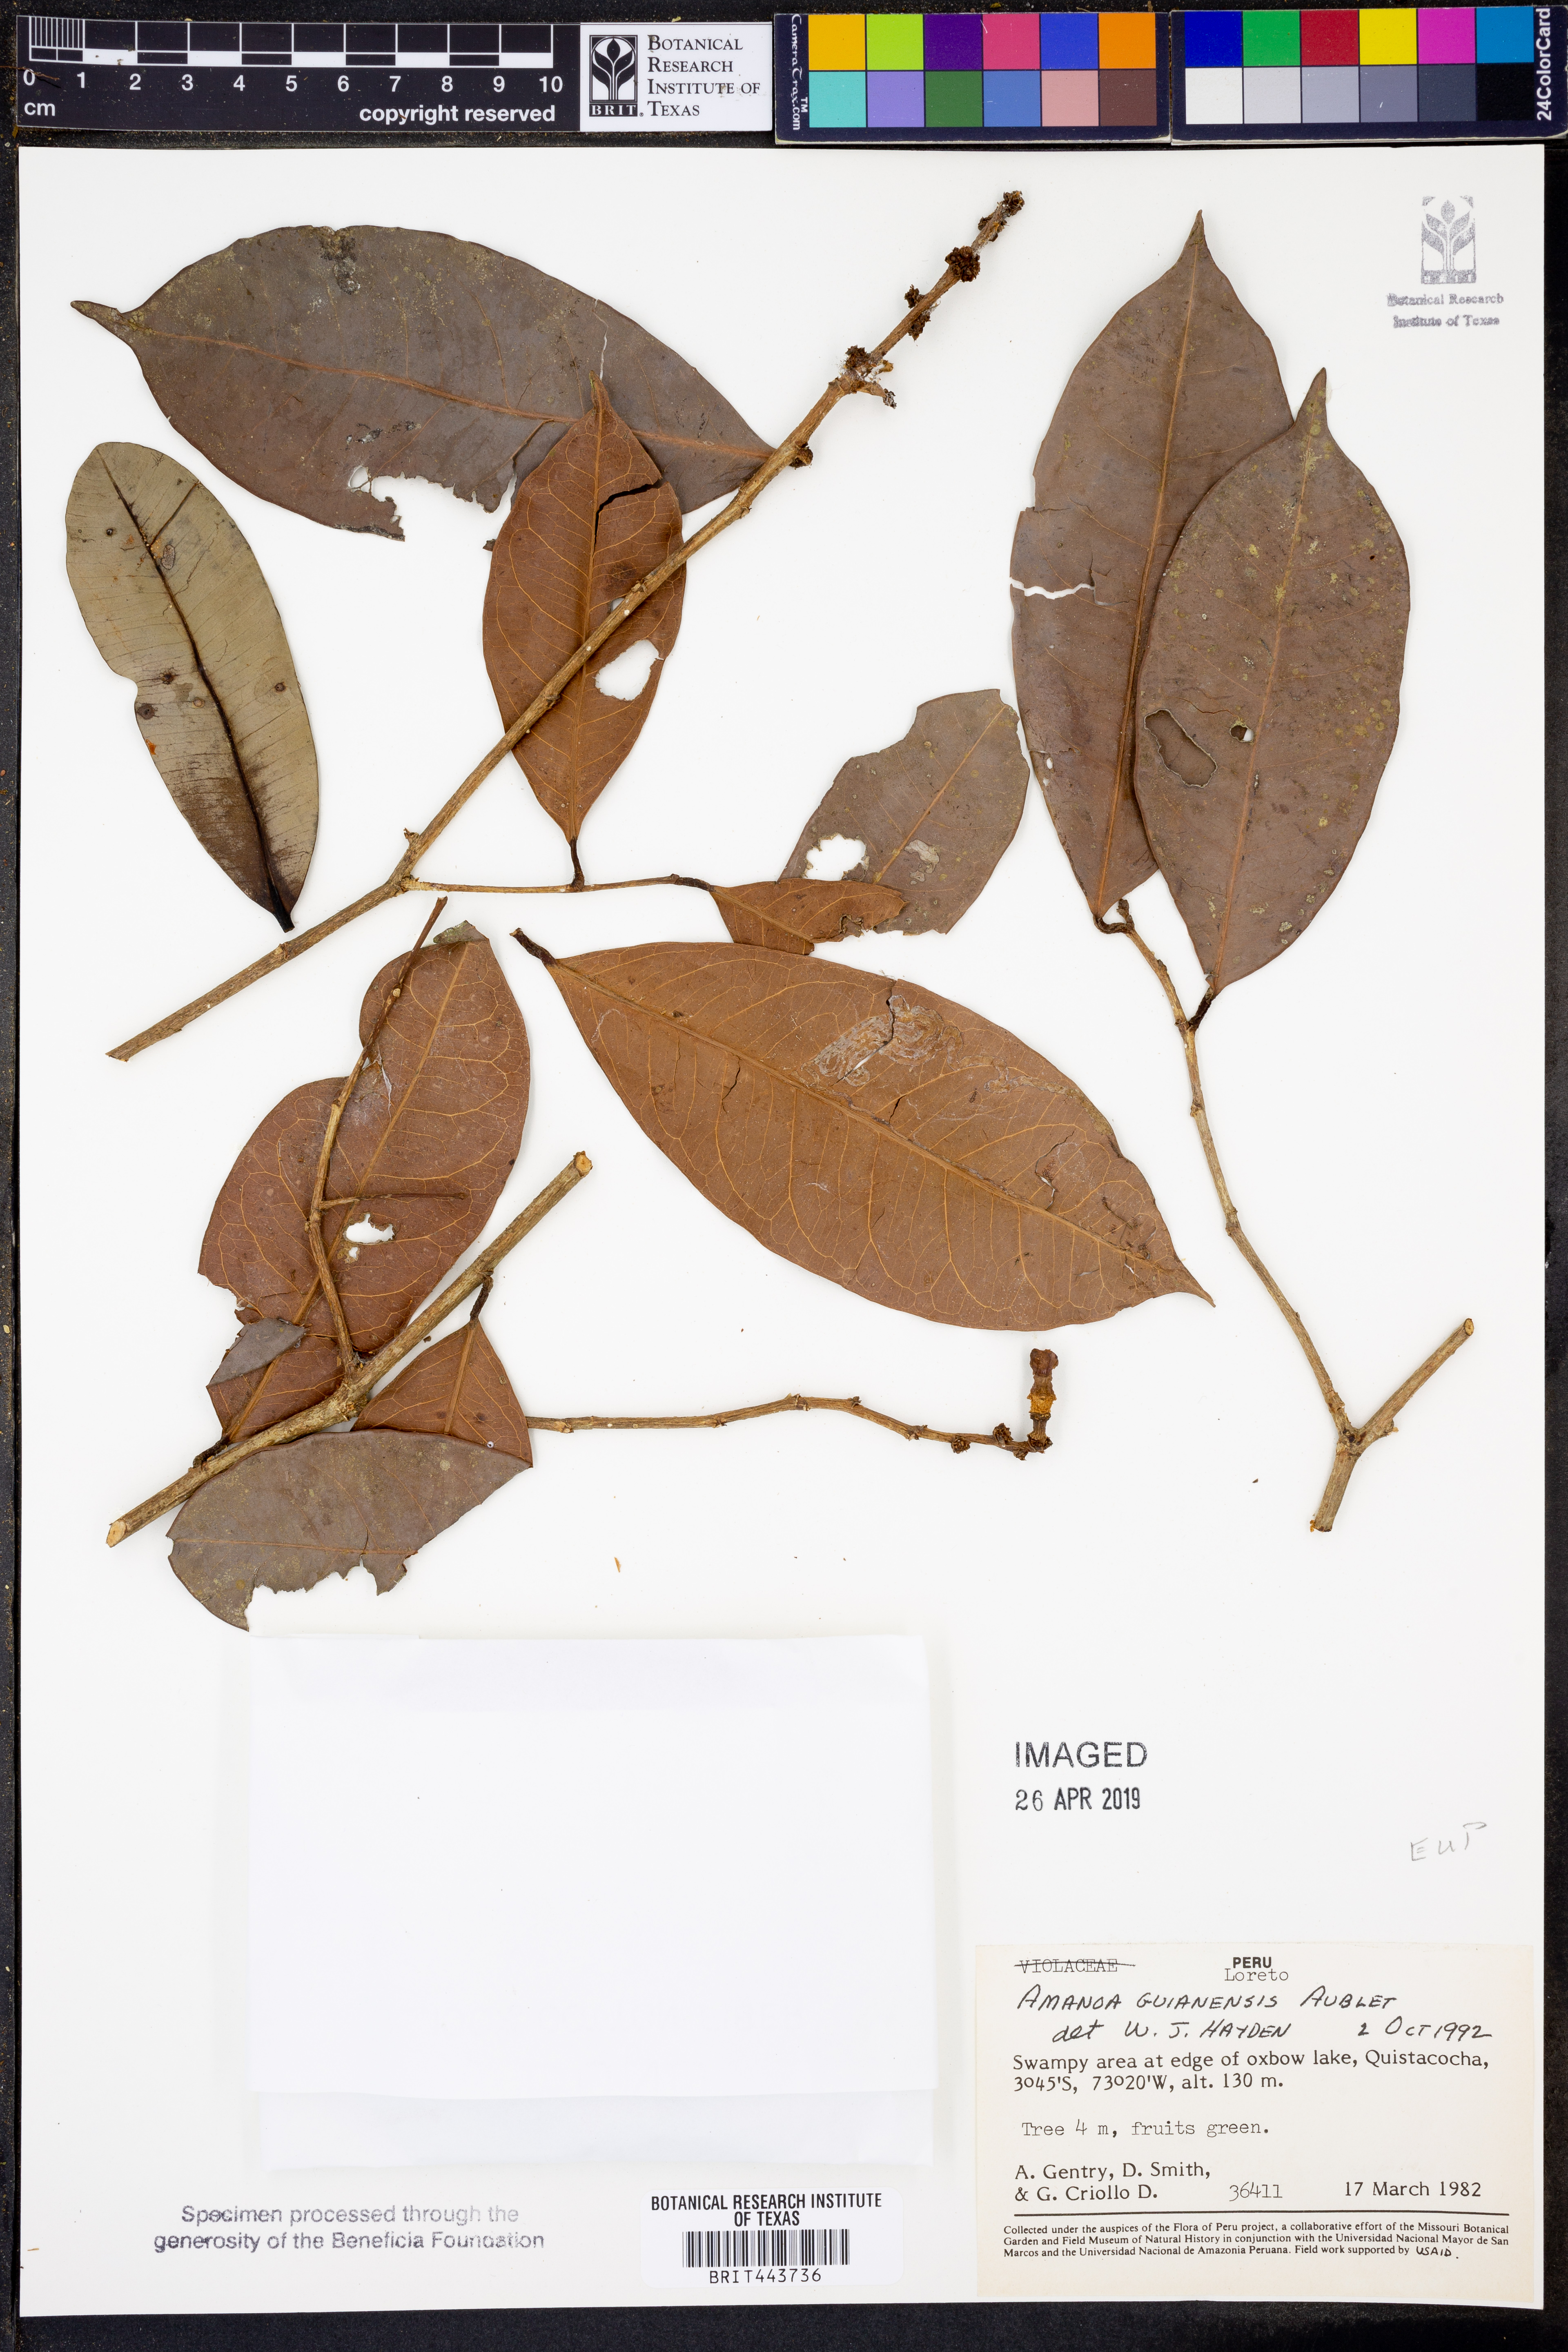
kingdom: Plantae
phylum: Tracheophyta
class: Magnoliopsida
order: Malpighiales
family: Phyllanthaceae
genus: Amanoa
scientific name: Amanoa guianensis
